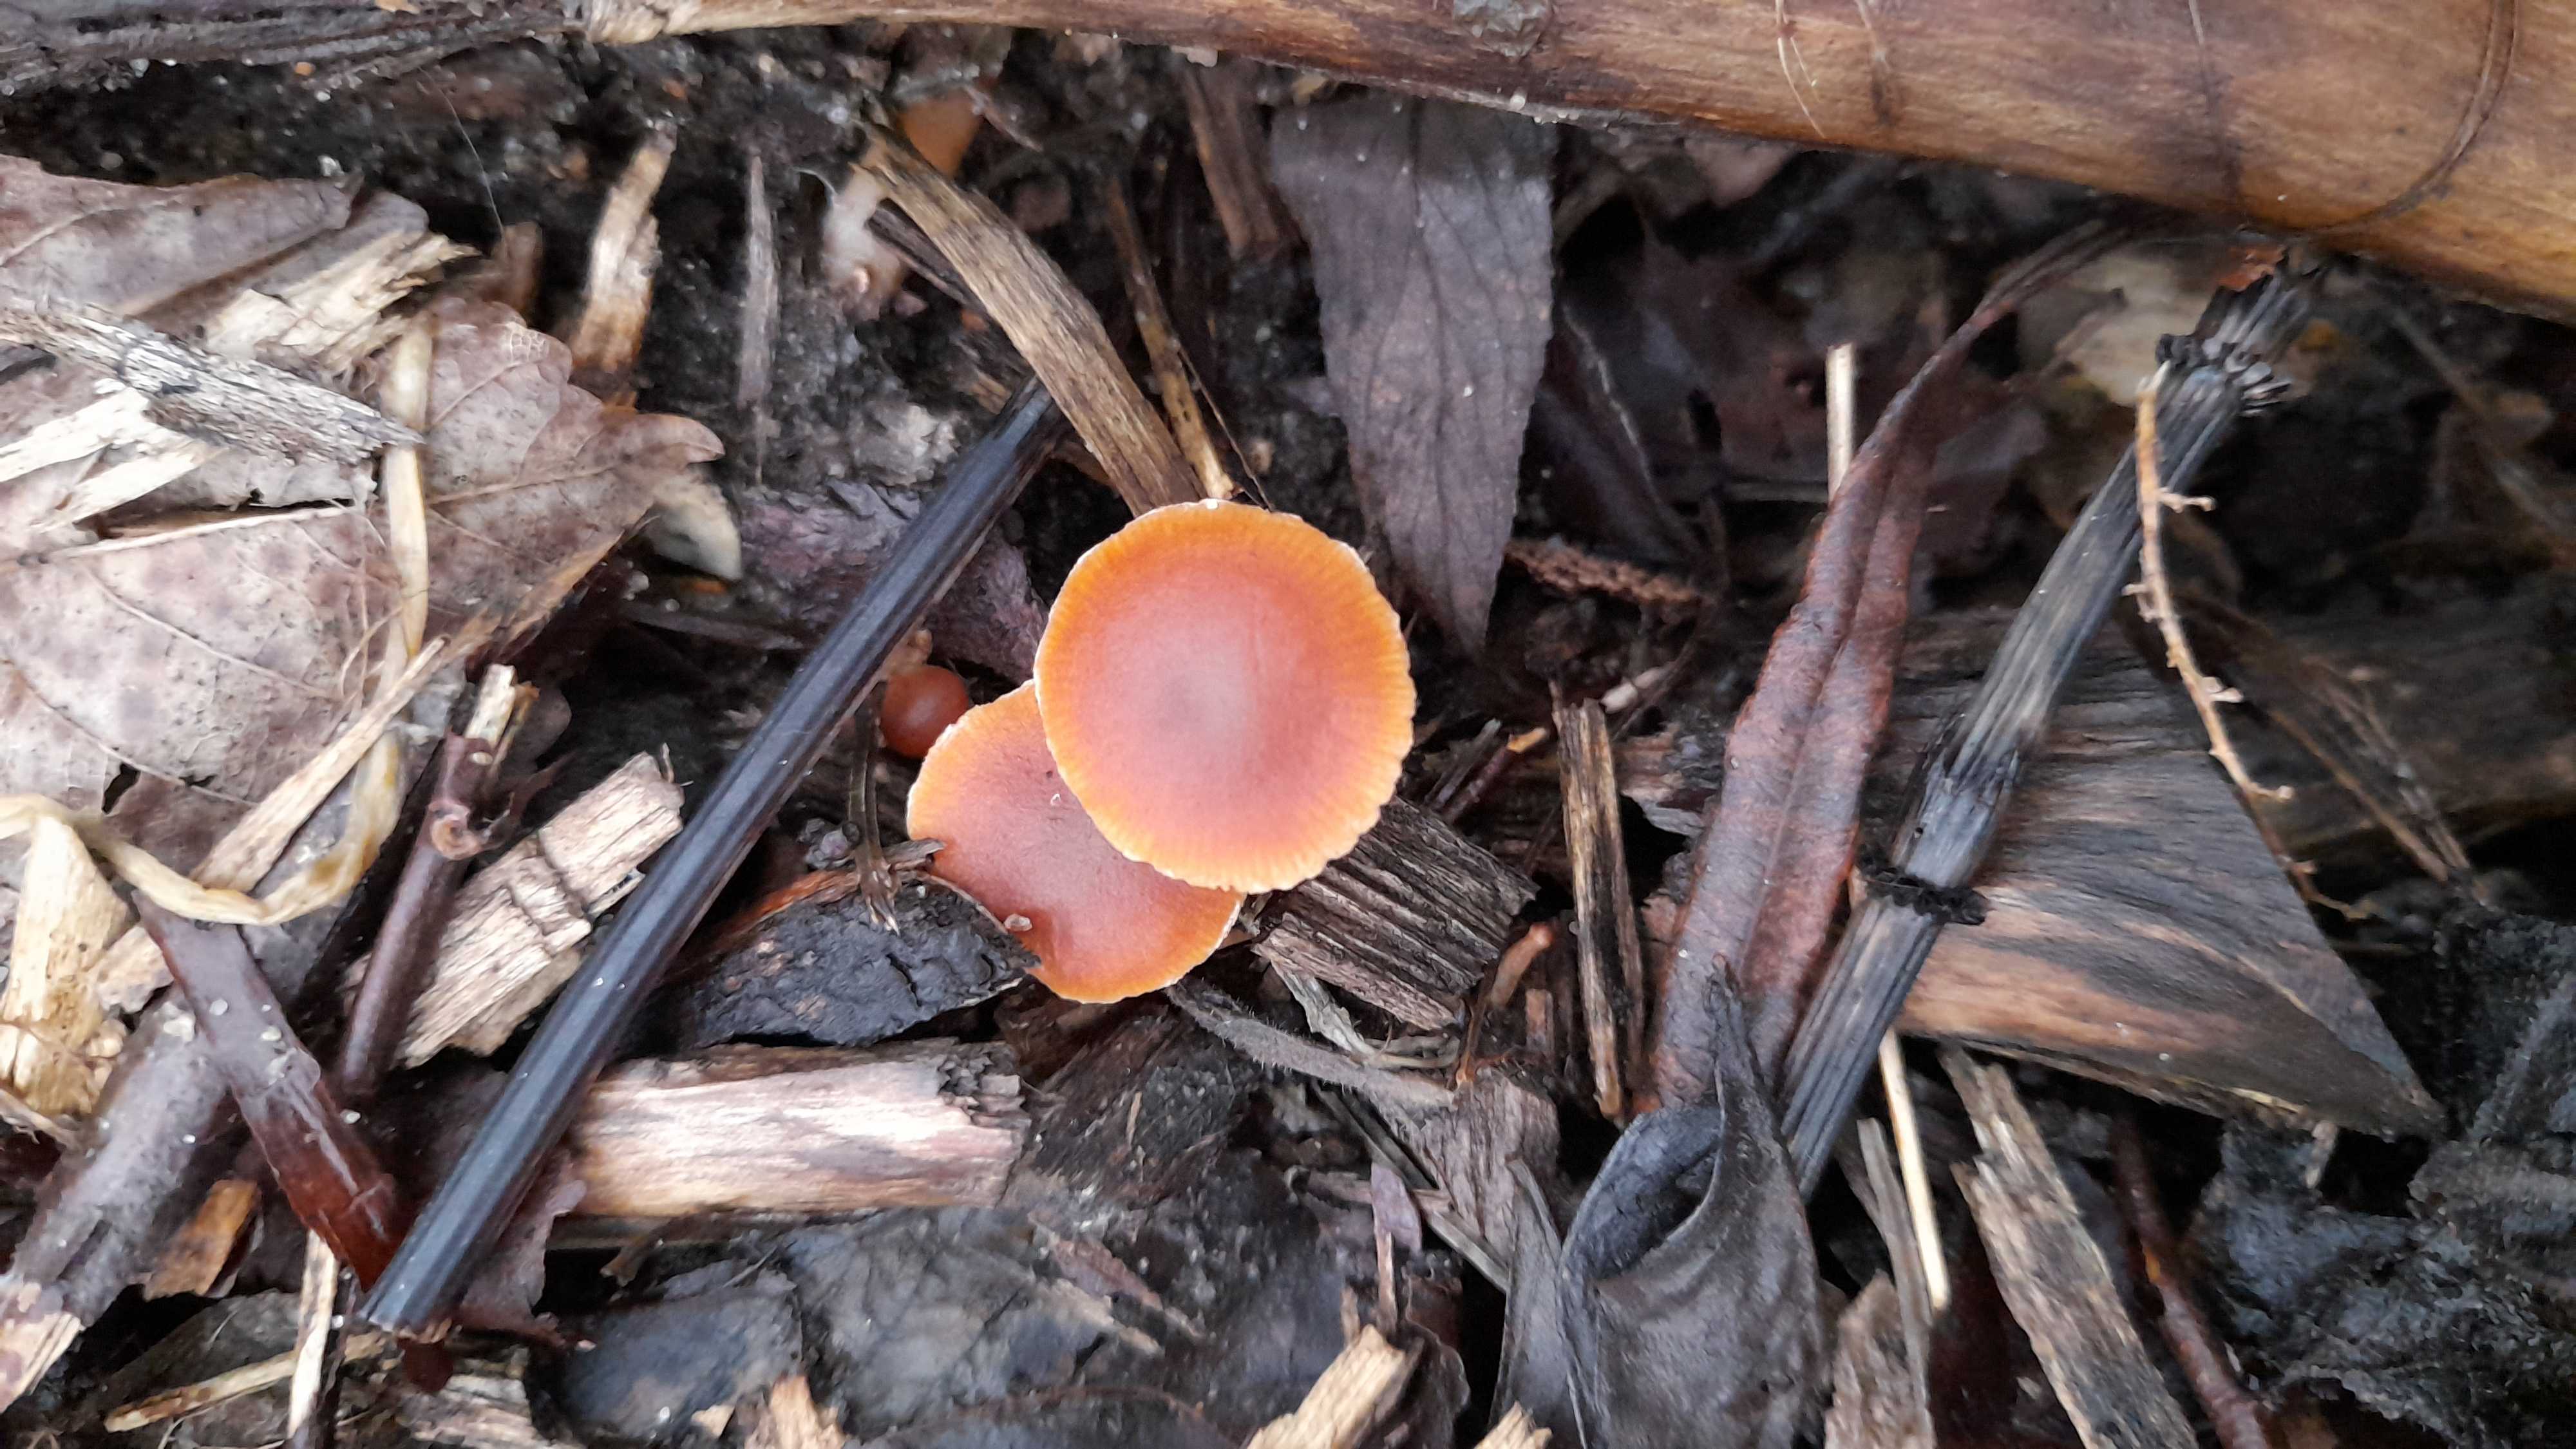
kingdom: Fungi
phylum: Basidiomycota
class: Agaricomycetes
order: Agaricales
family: Tubariaceae
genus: Tubaria
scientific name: Tubaria furfuracea
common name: kliddet fnughat
